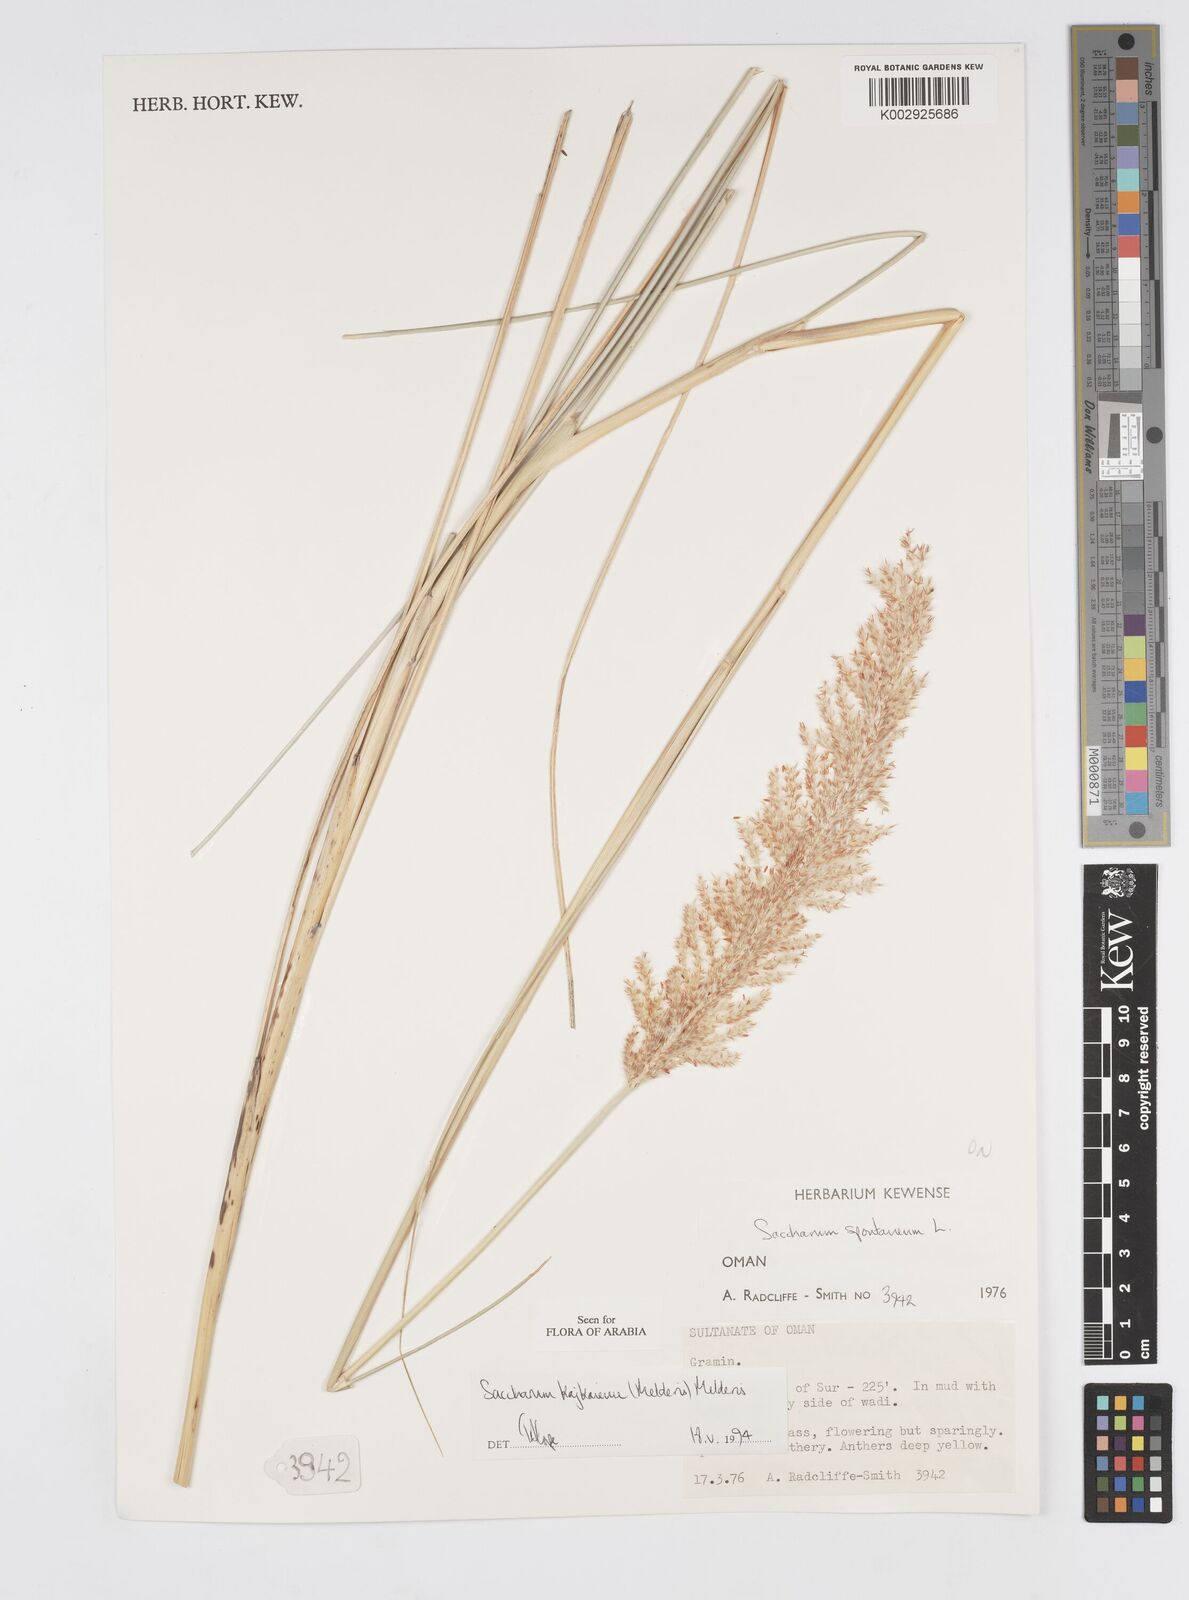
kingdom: Plantae
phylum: Tracheophyta
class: Liliopsida
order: Poales
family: Poaceae
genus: Saccharum
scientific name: Saccharum kajkaiense
